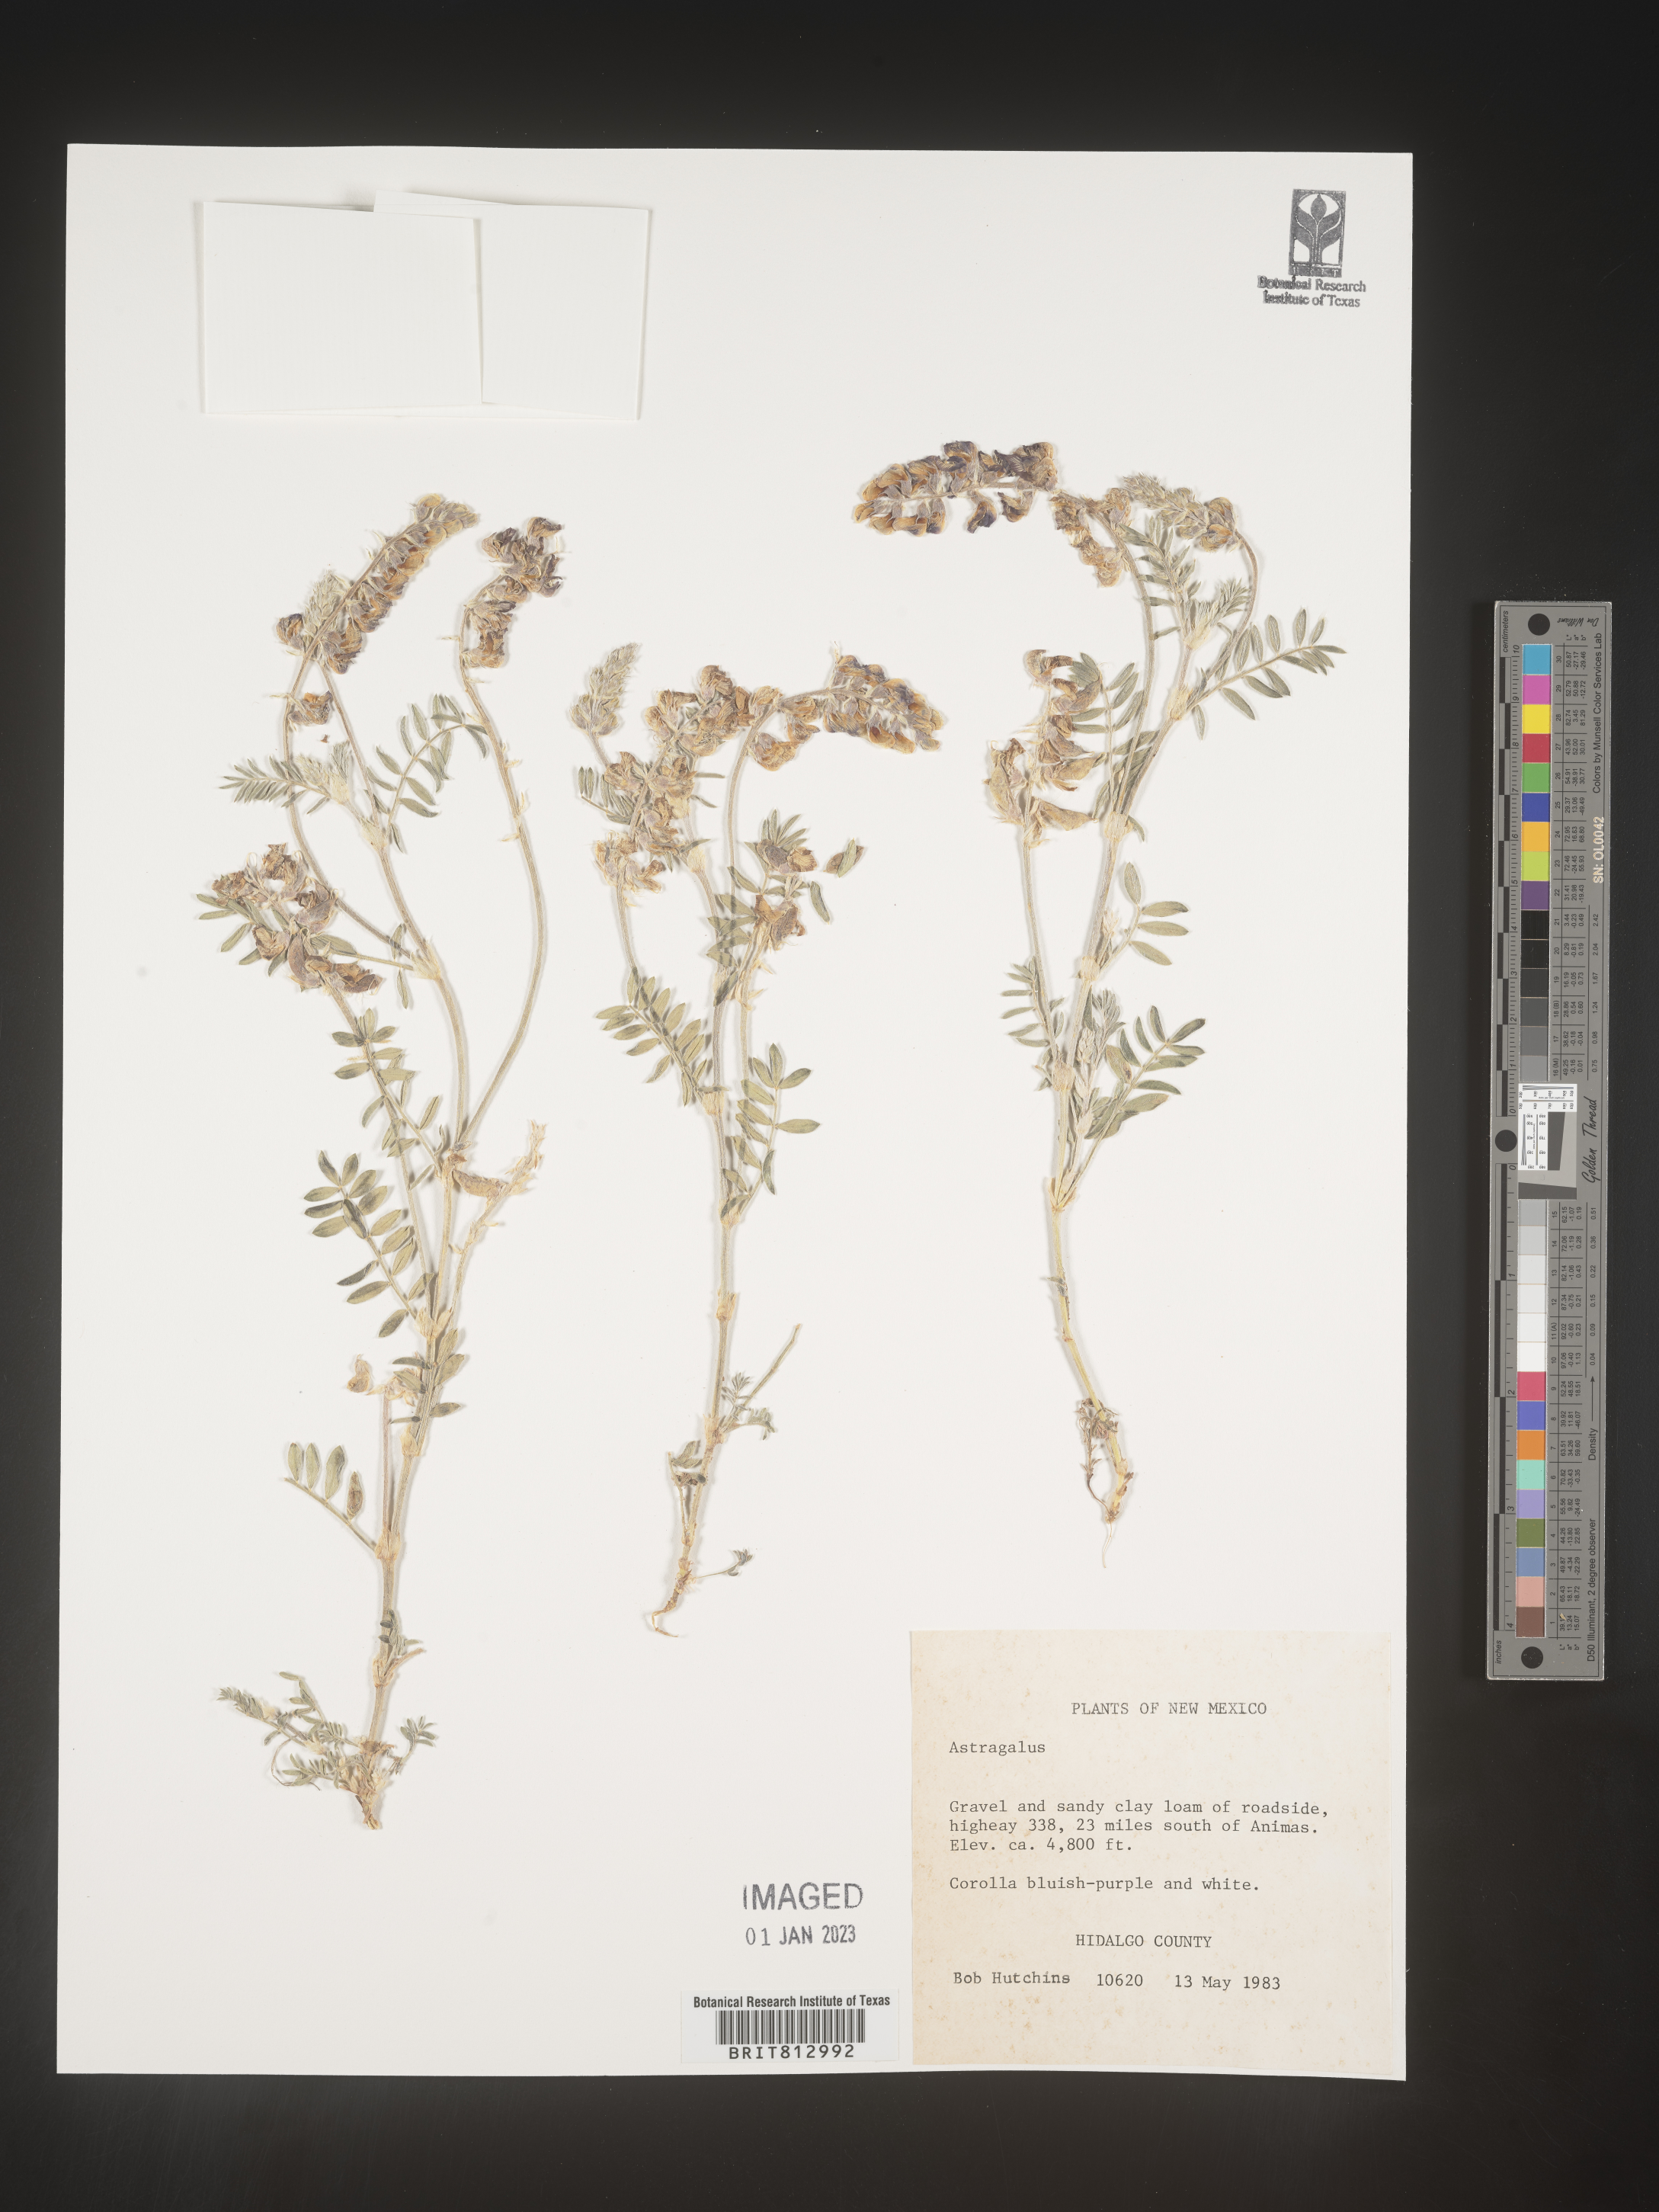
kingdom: Plantae
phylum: Tracheophyta
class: Magnoliopsida
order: Fabales
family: Fabaceae
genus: Astragalus
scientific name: Astragalus
